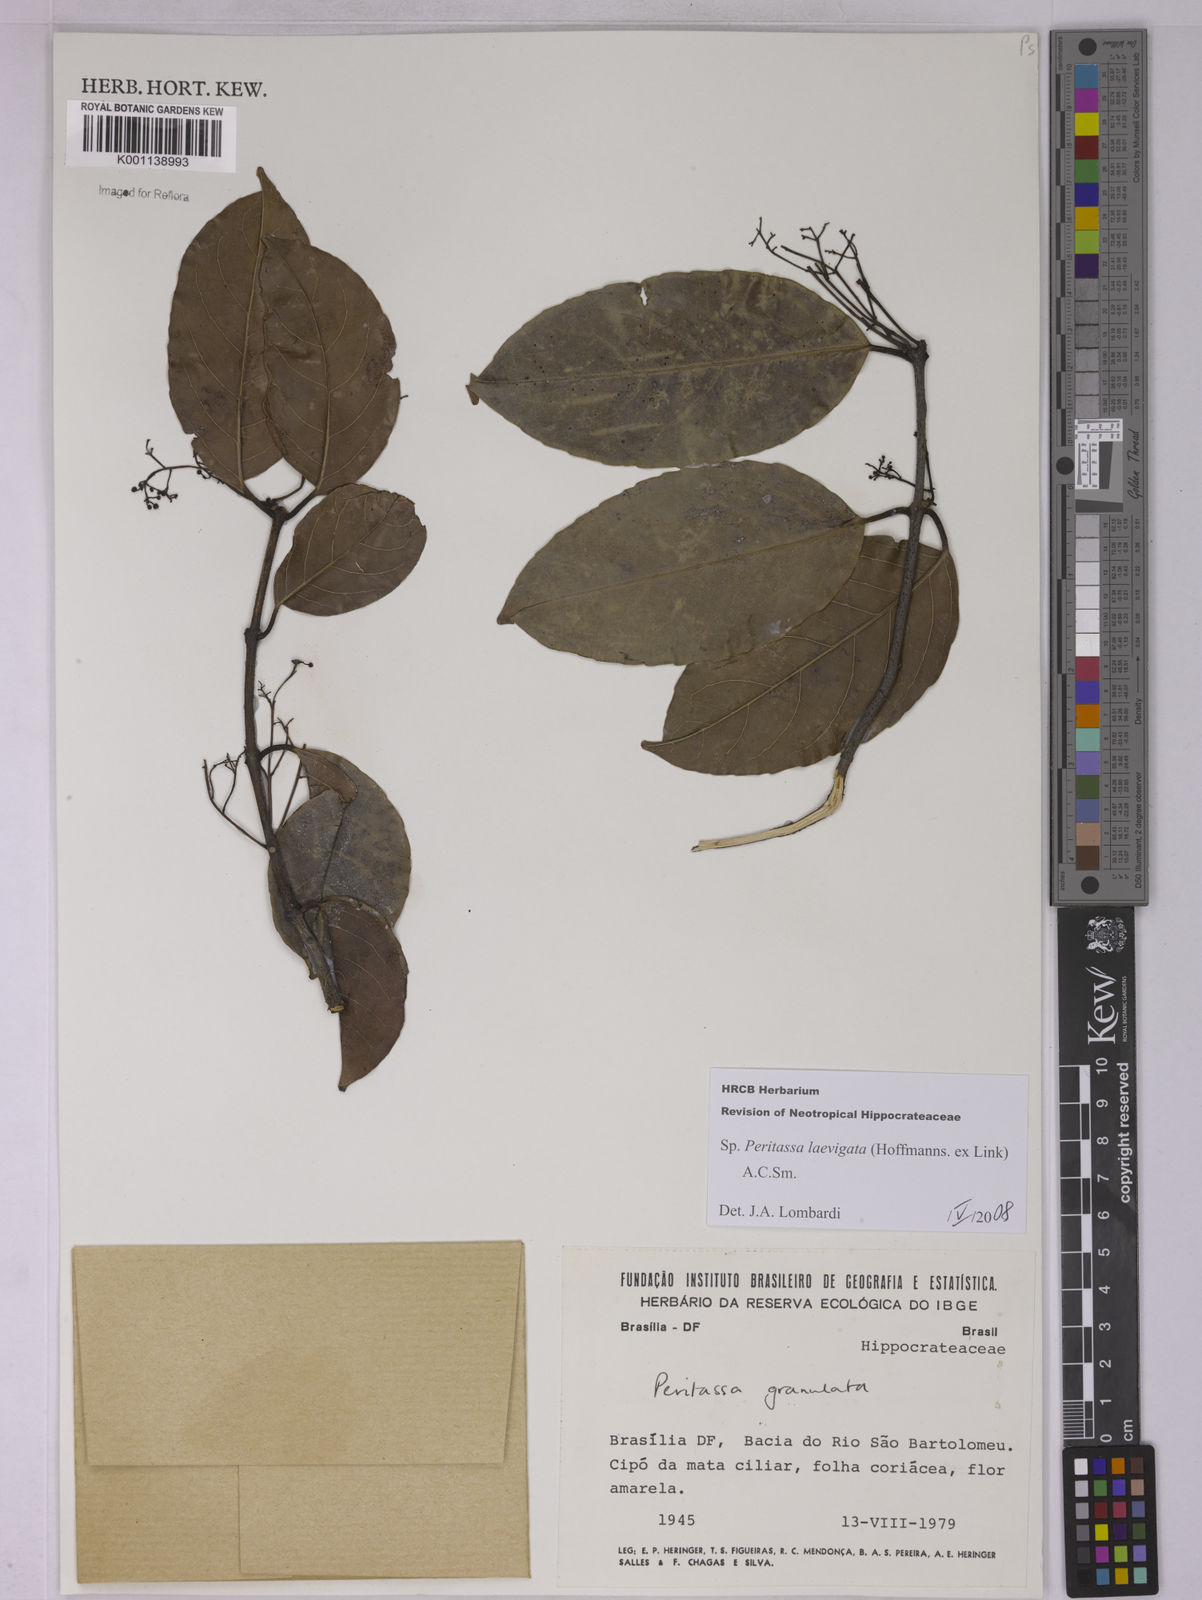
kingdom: Plantae
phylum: Tracheophyta
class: Magnoliopsida
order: Celastrales
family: Celastraceae
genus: Peritassa
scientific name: Peritassa laevigata
